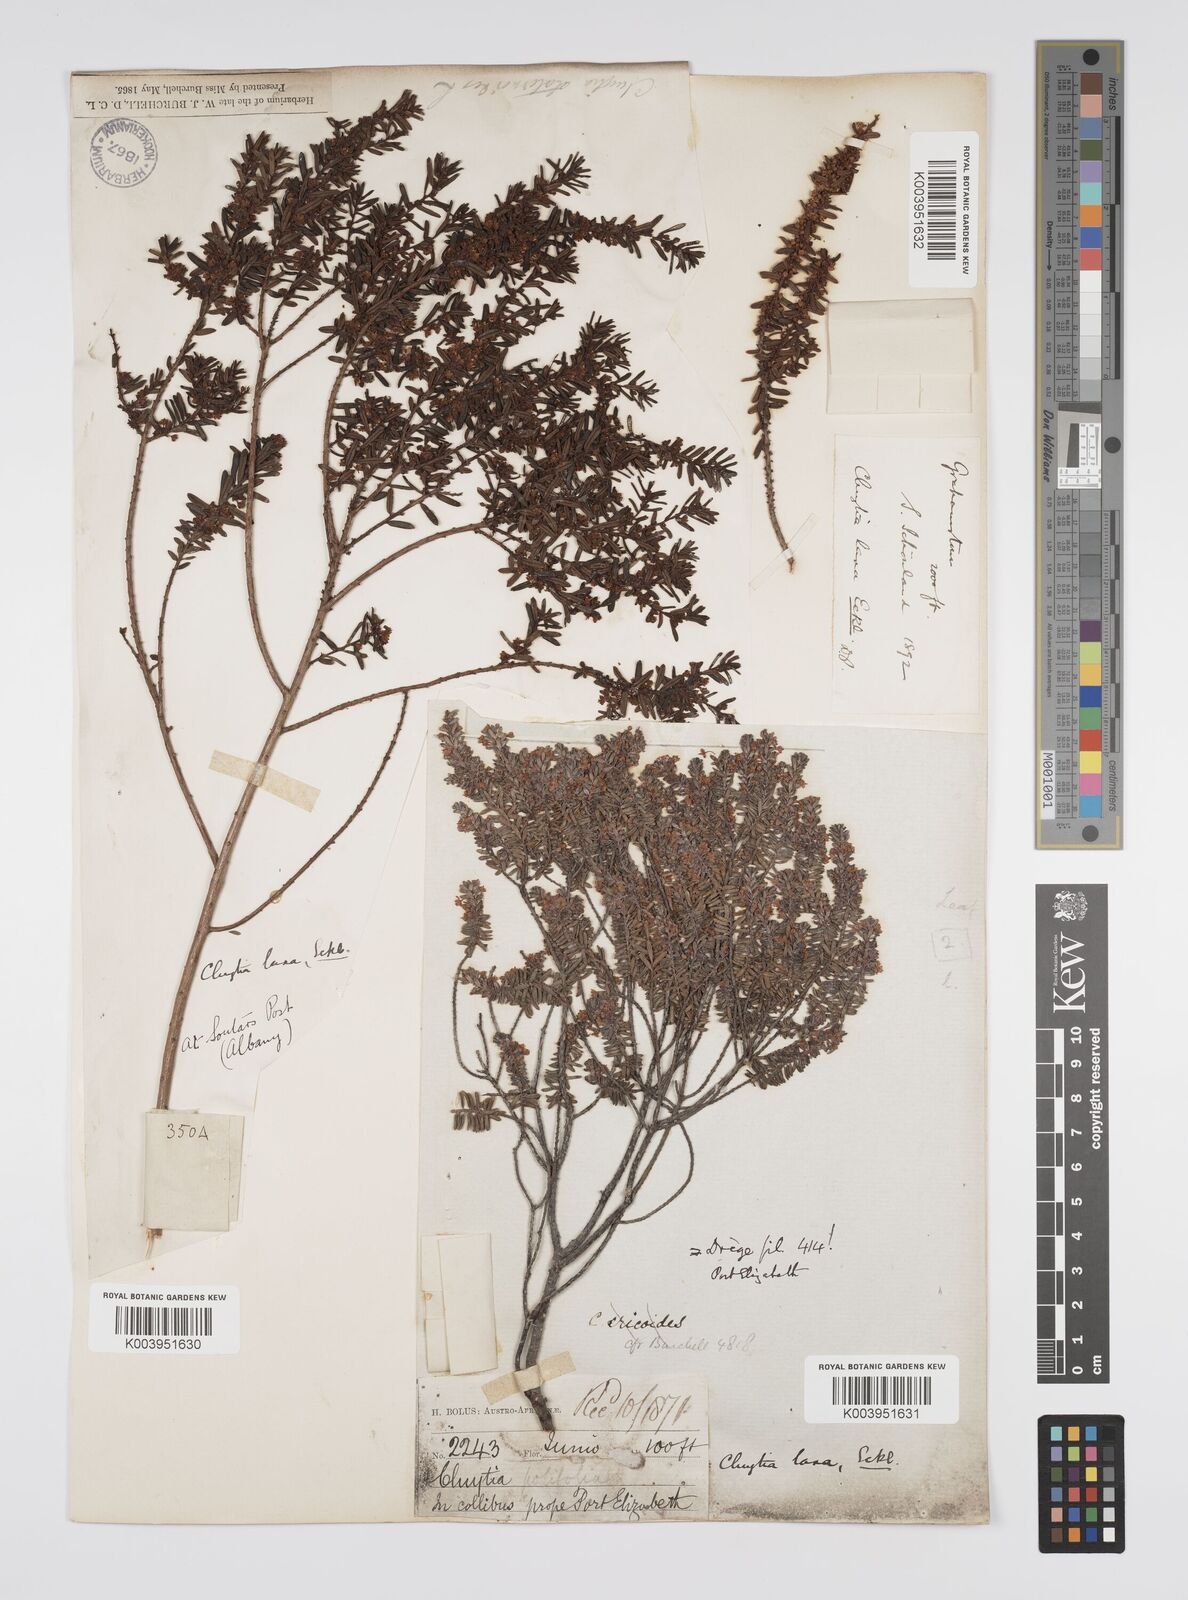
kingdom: Plantae
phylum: Tracheophyta
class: Magnoliopsida
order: Malpighiales
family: Peraceae
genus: Clutia
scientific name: Clutia laxa
